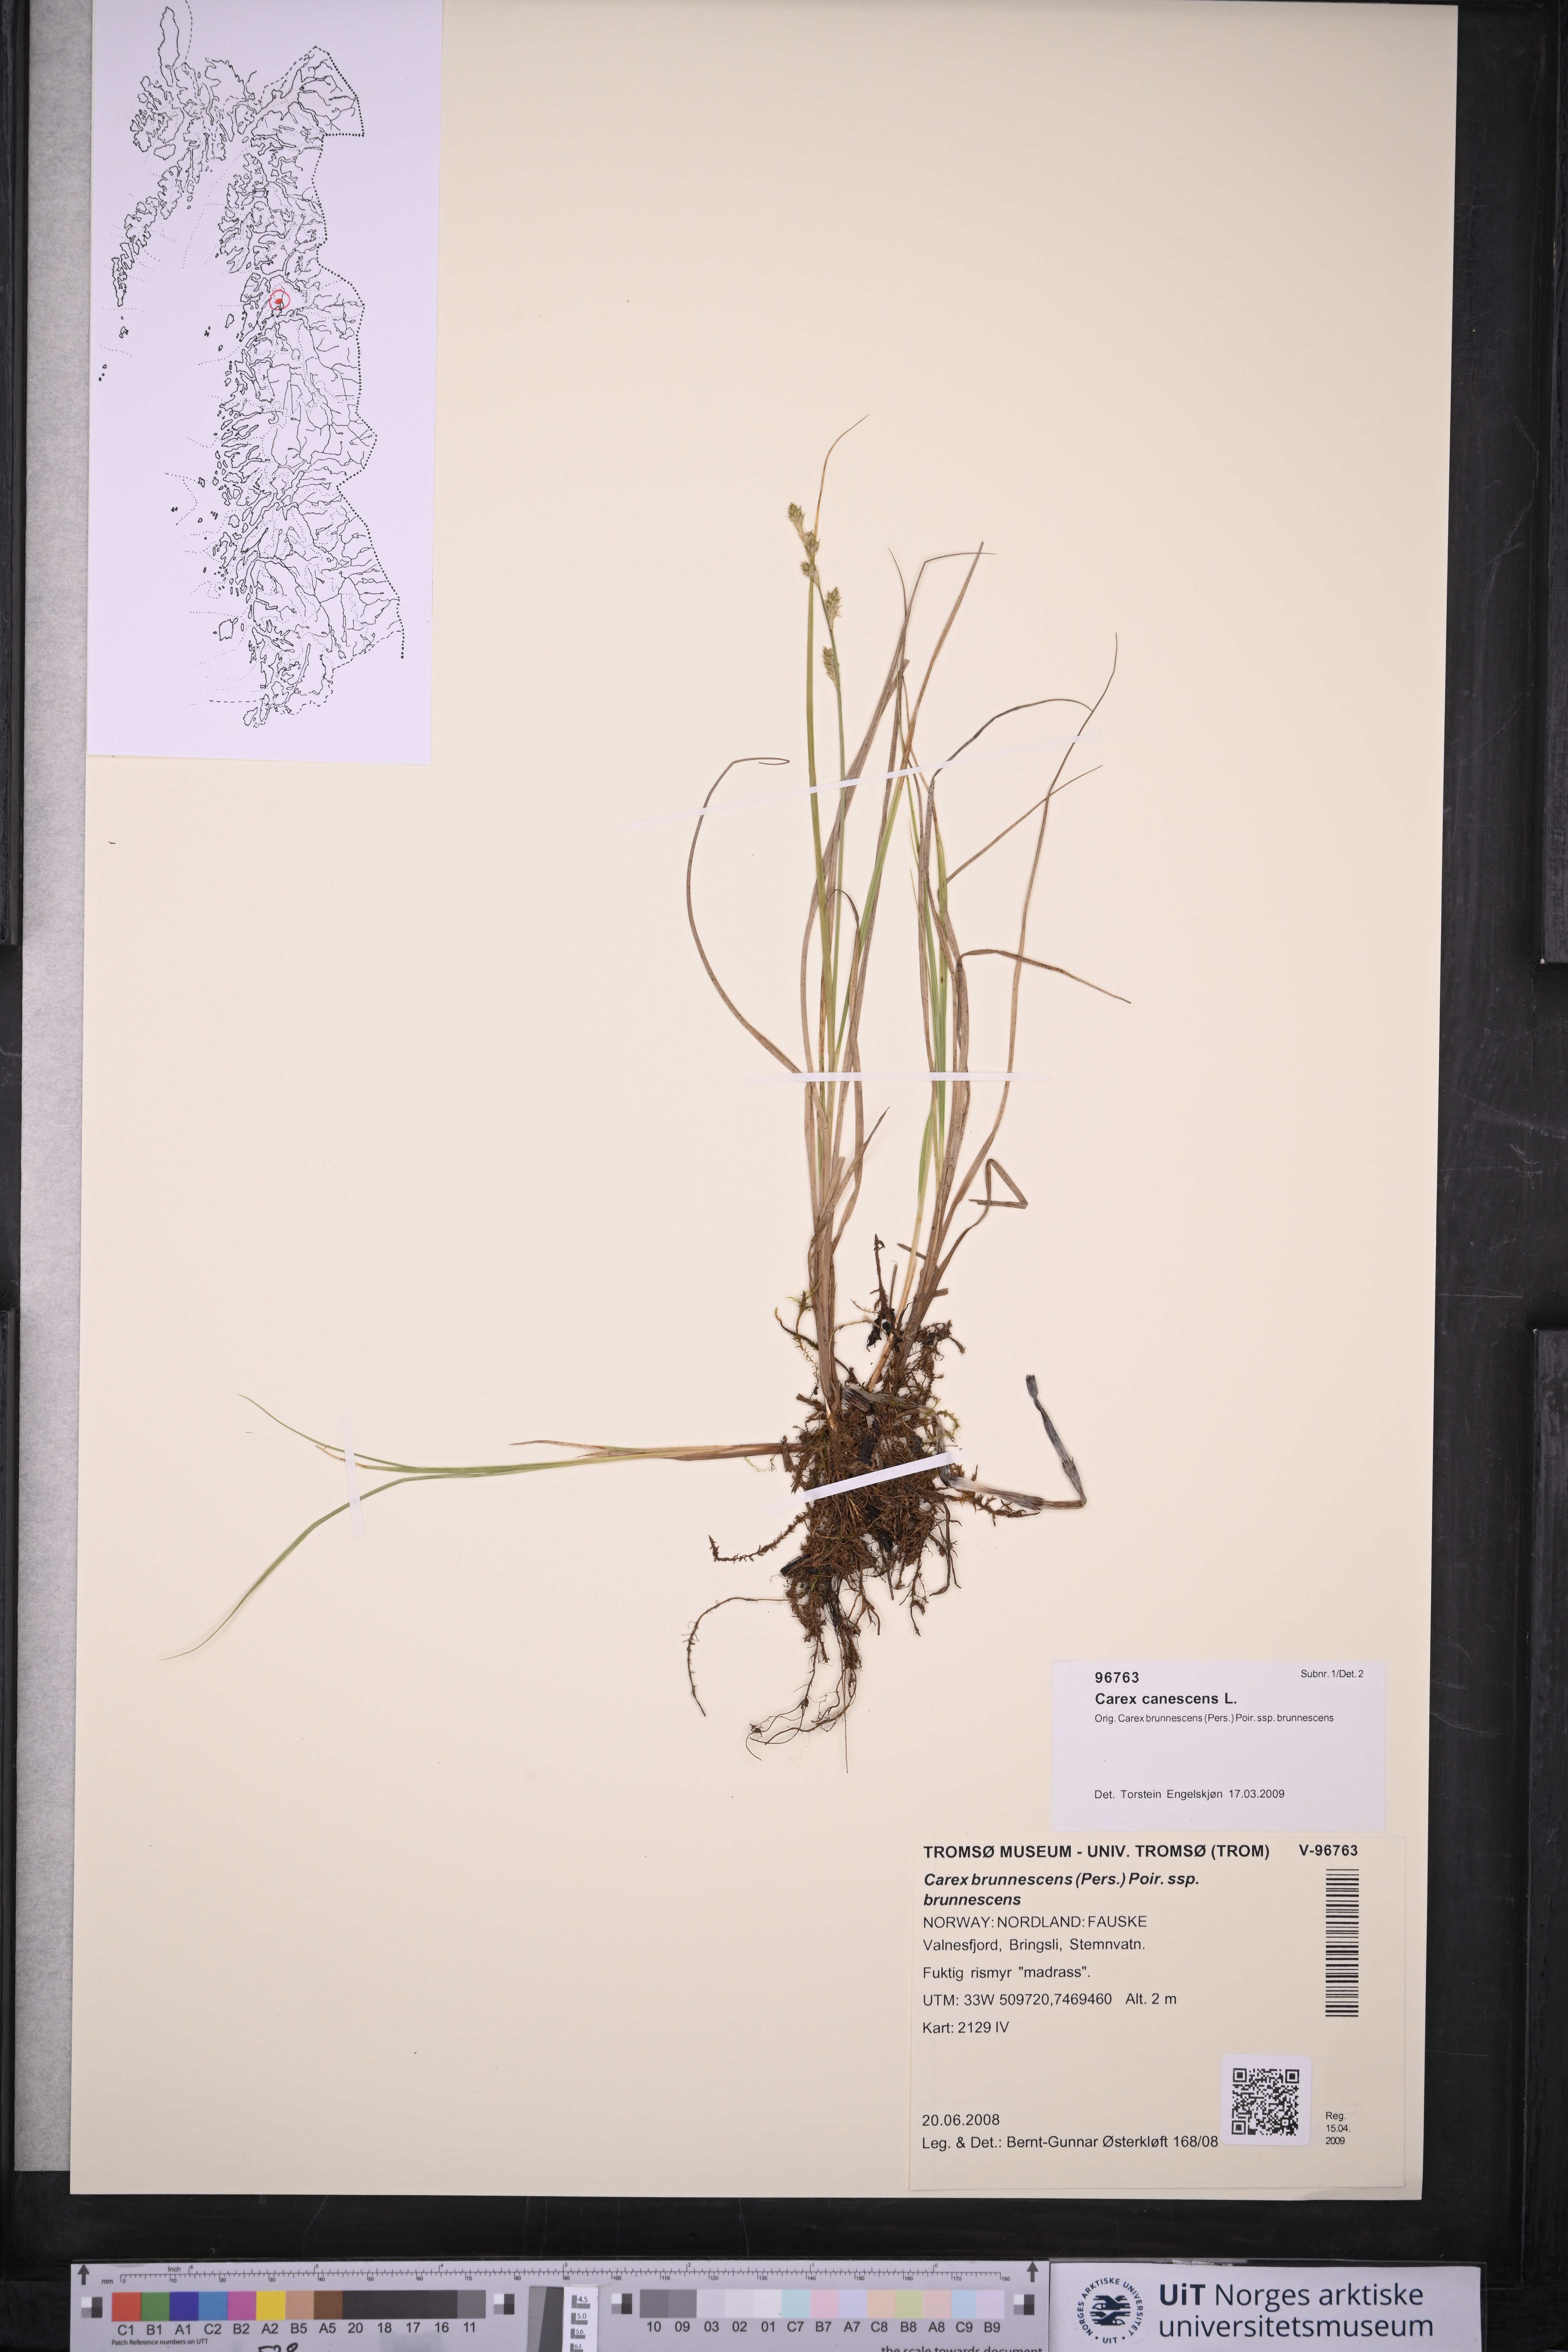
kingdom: Plantae
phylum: Tracheophyta
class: Liliopsida
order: Poales
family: Cyperaceae
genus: Carex
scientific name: Carex canescens
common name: White sedge
